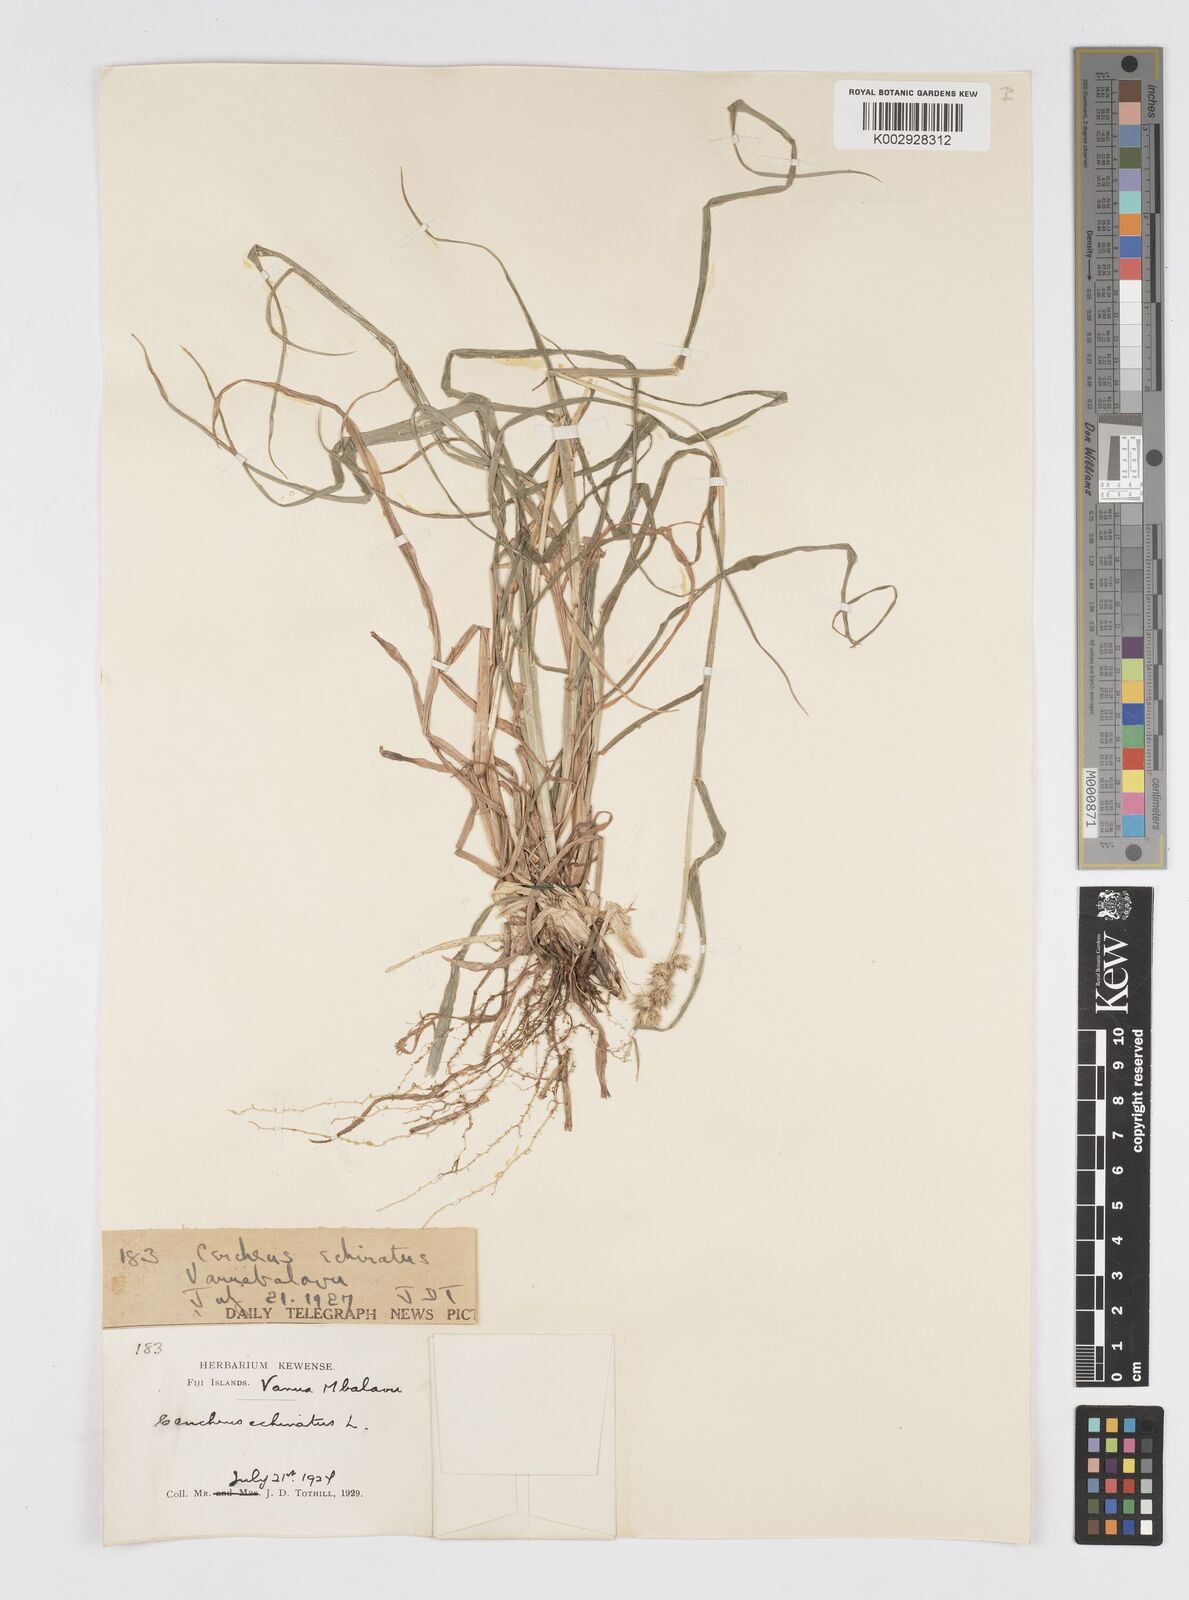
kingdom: Plantae
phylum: Tracheophyta
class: Liliopsida
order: Poales
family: Poaceae
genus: Cenchrus
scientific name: Cenchrus echinatus
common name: Southern sandbur
